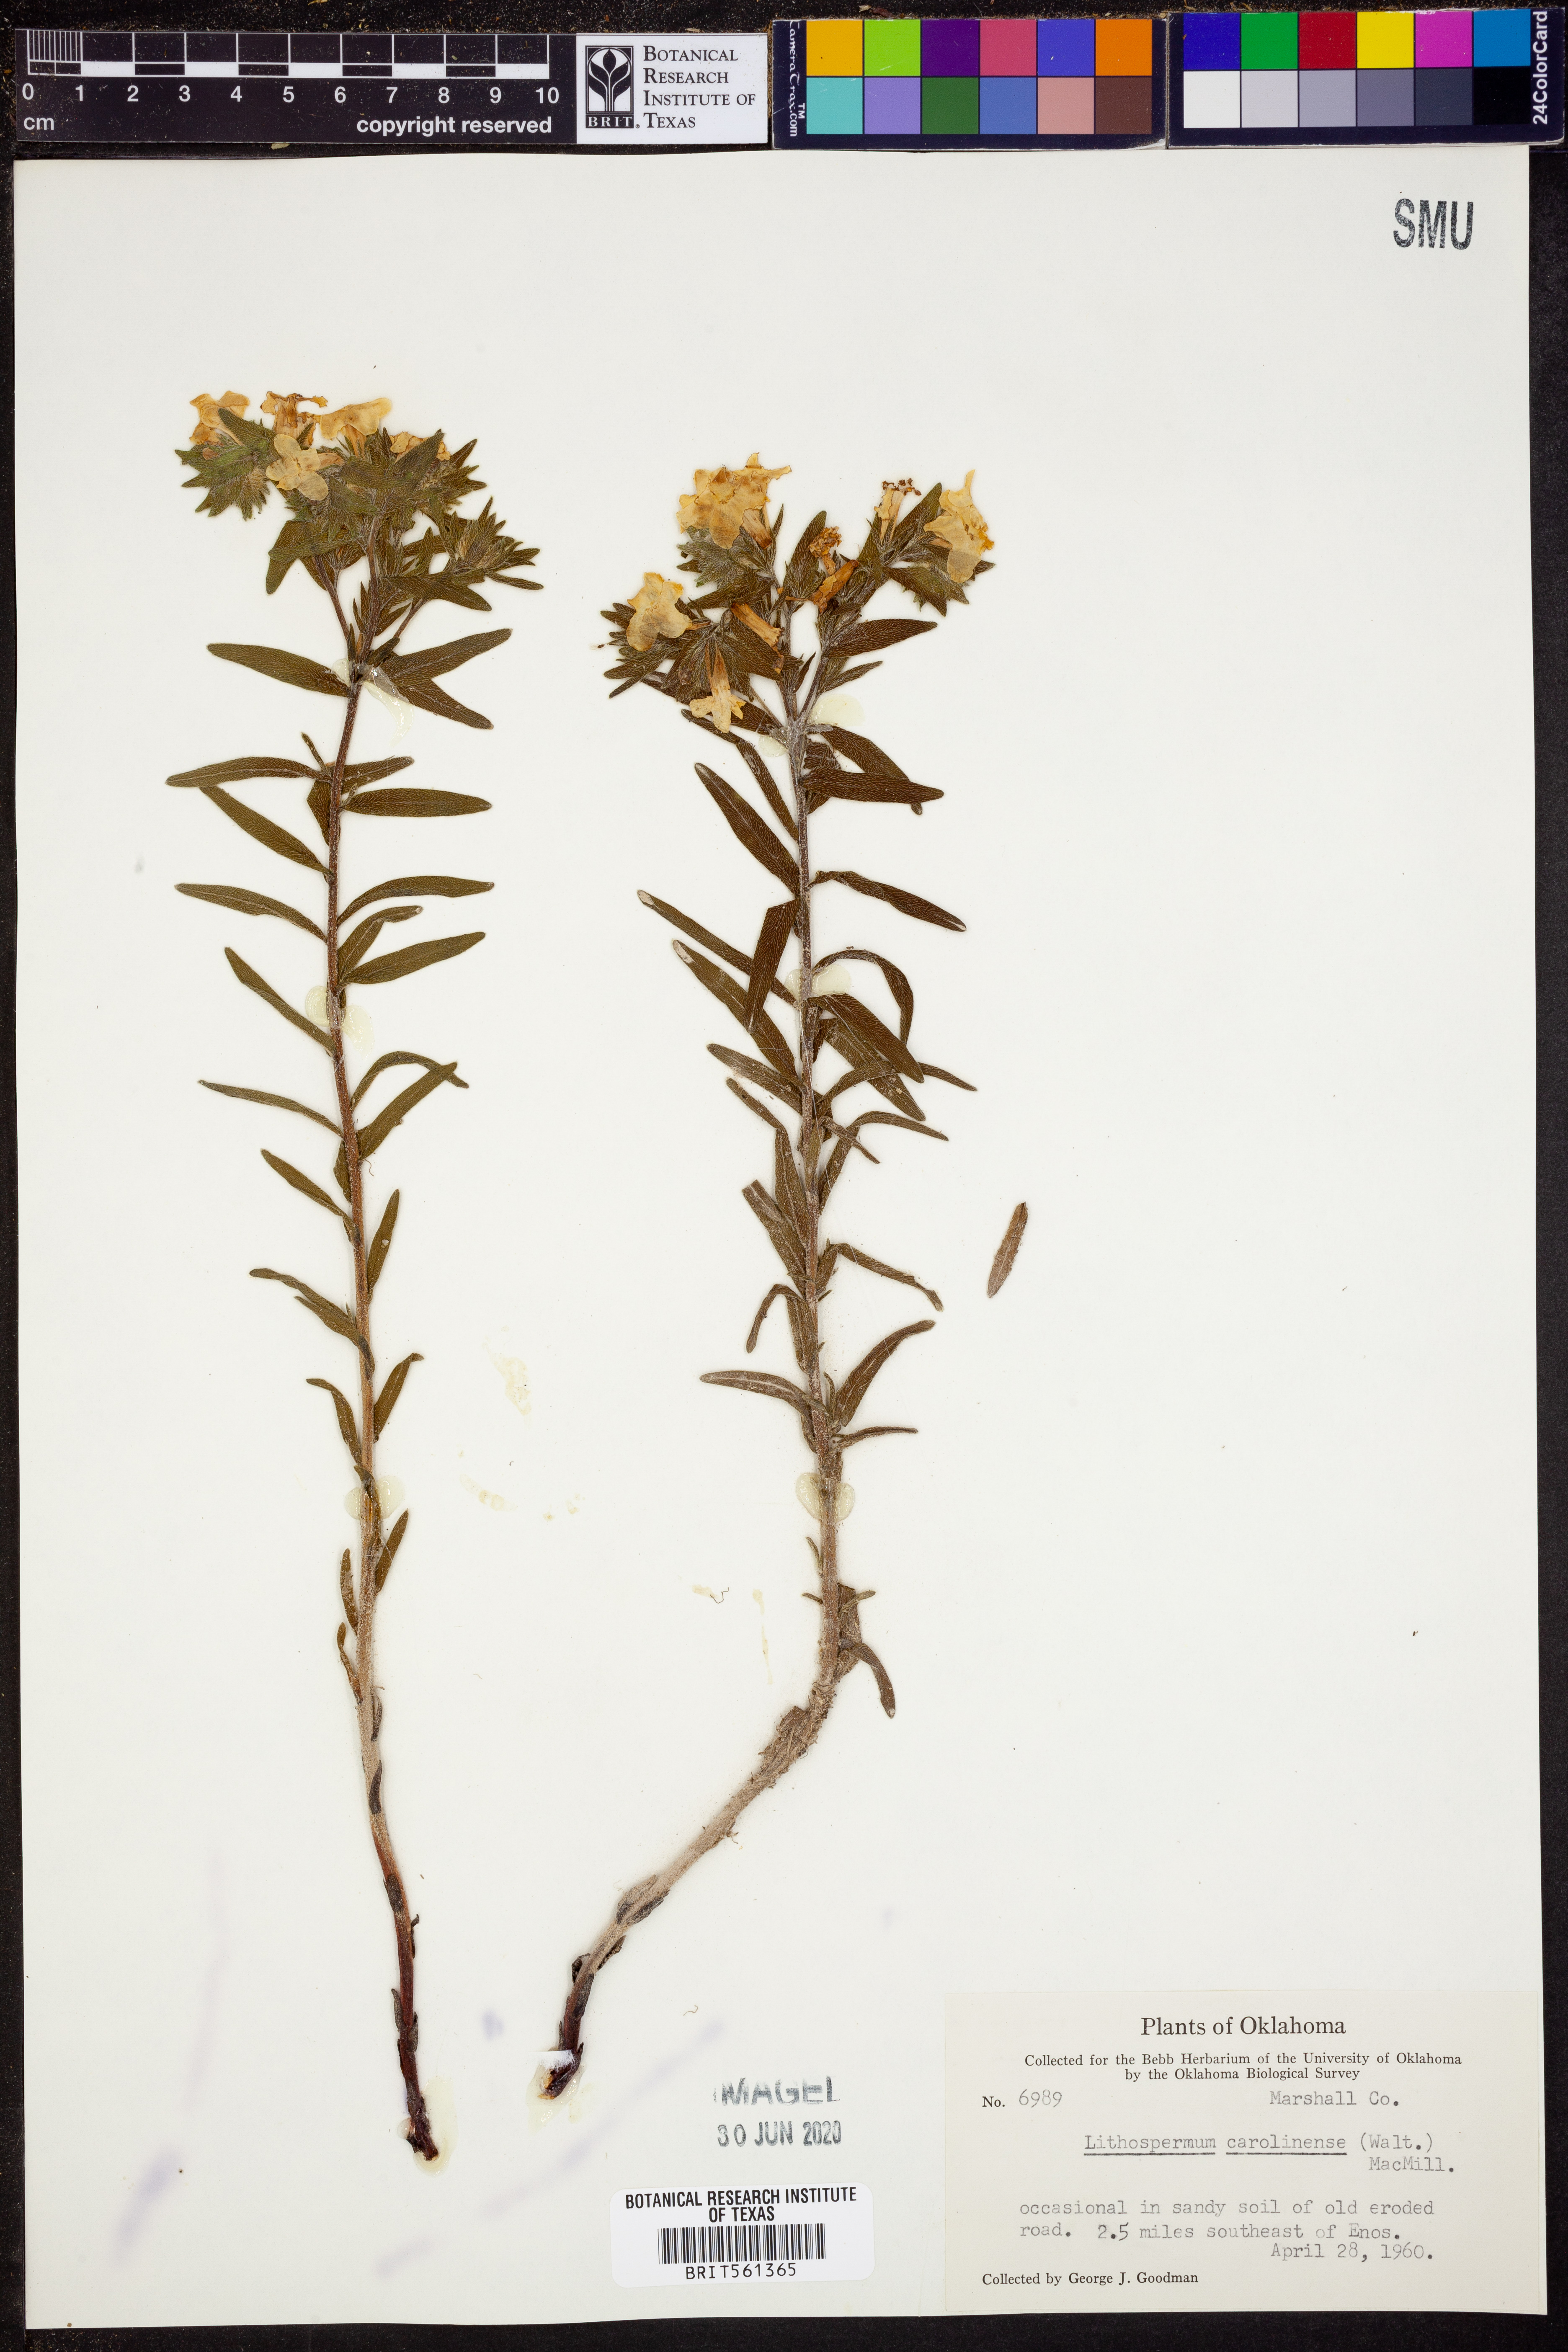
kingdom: Plantae
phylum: Tracheophyta
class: Magnoliopsida
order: Boraginales
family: Boraginaceae
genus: Lithospermum
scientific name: Lithospermum caroliniense
